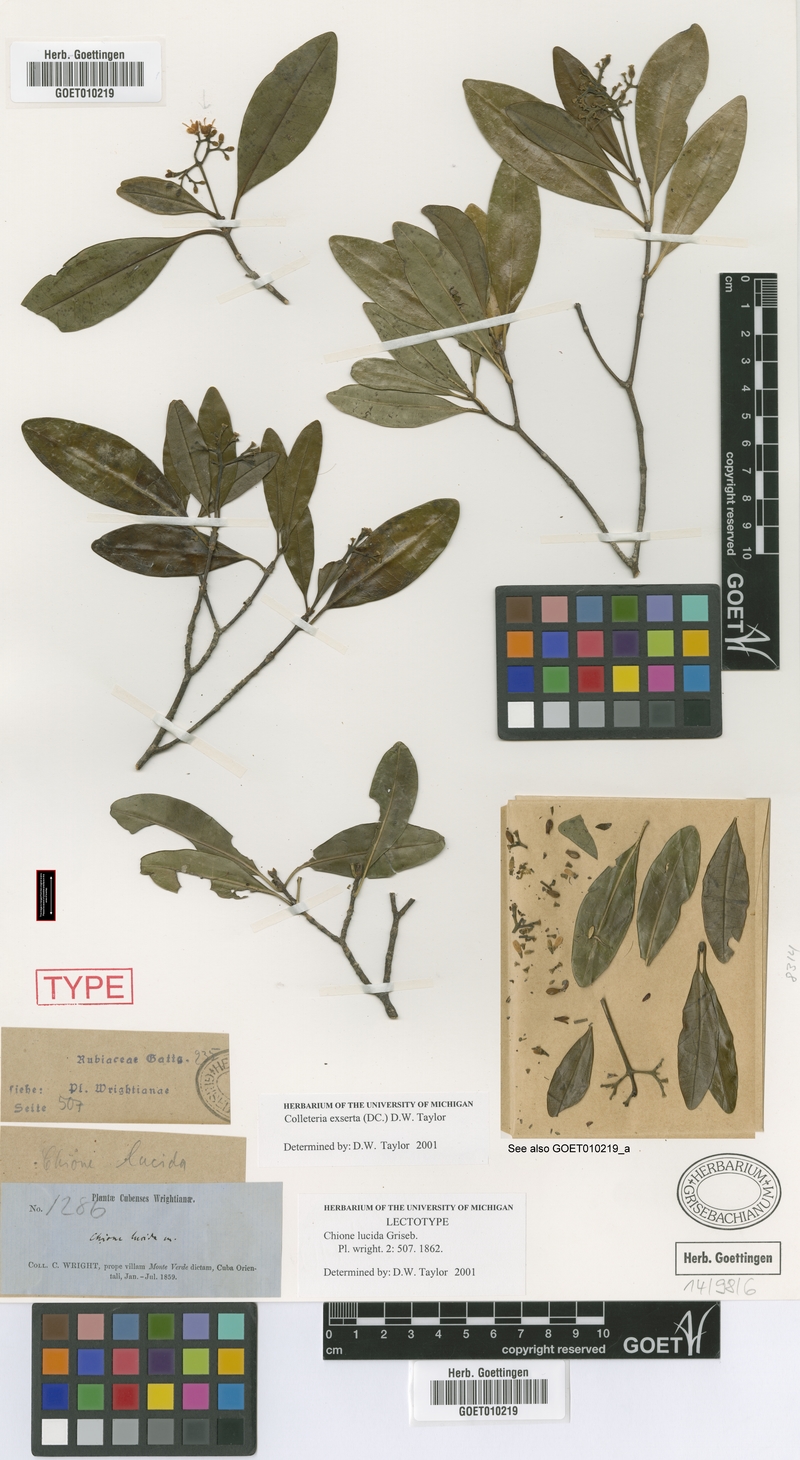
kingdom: Plantae
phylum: Tracheophyta
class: Magnoliopsida
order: Gentianales
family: Rubiaceae
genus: Wandersong
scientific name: Wandersong exserta
